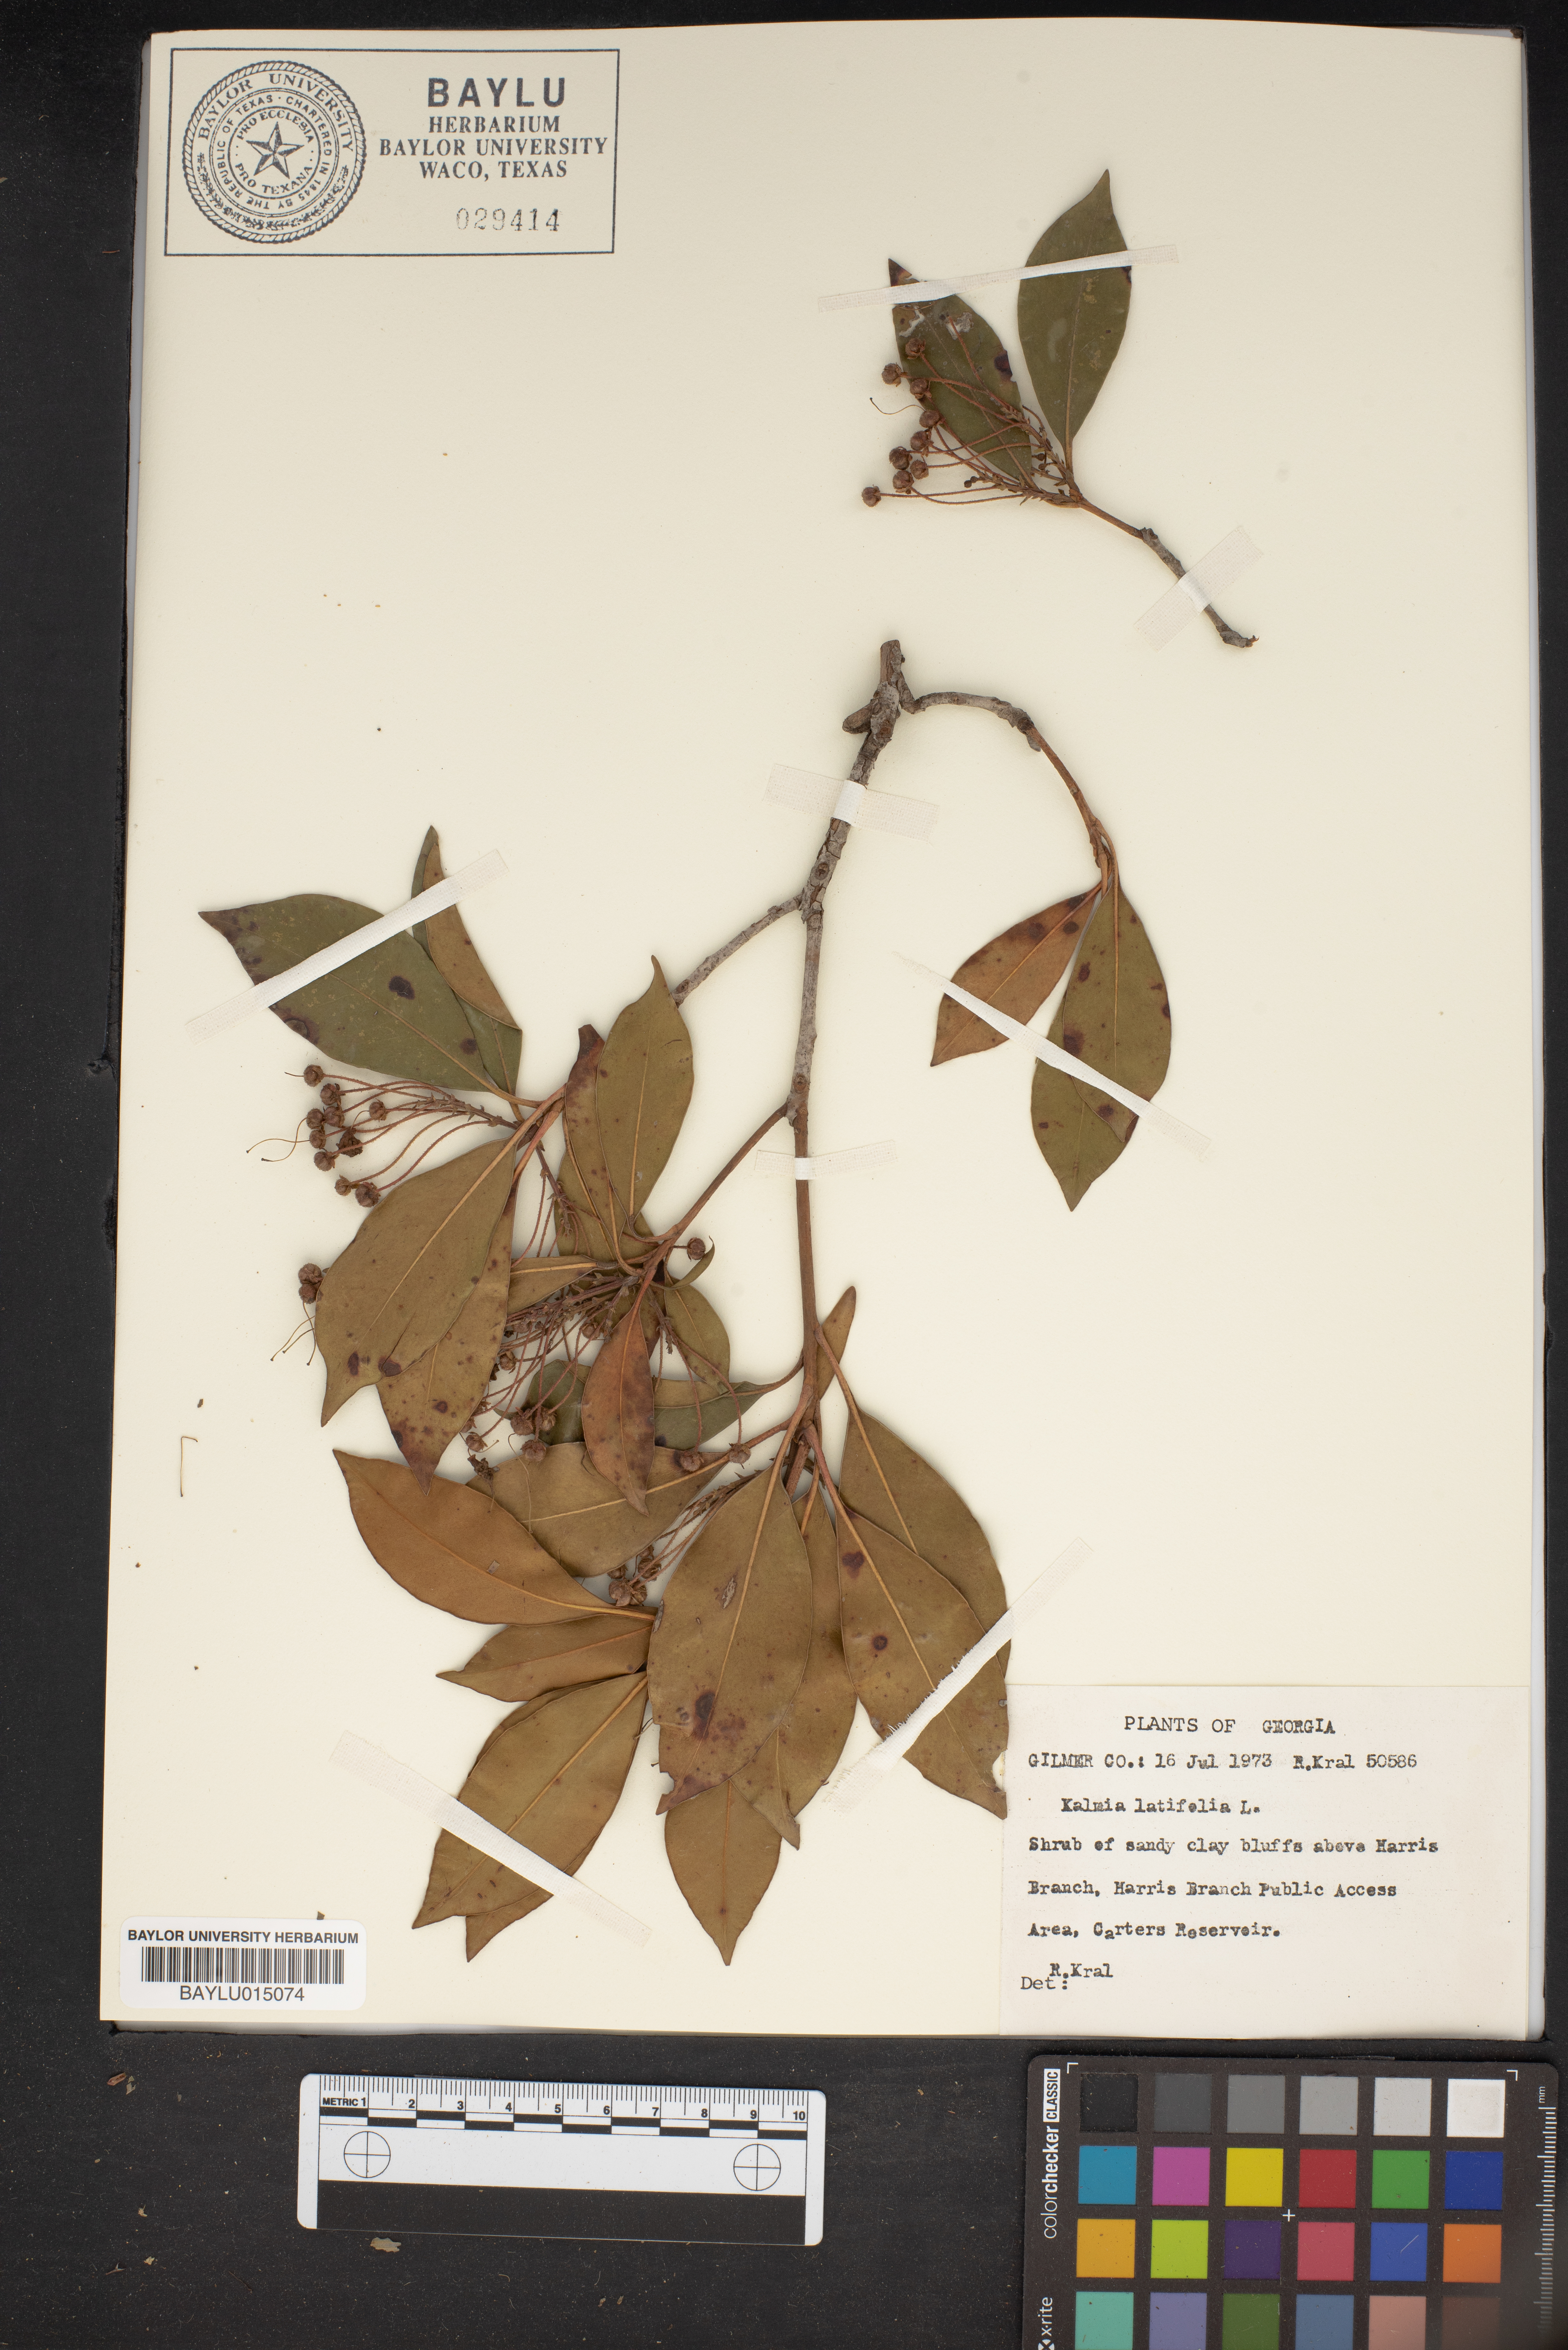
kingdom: Plantae
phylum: Tracheophyta
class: Magnoliopsida
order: Ericales
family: Ericaceae
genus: Kalmia
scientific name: Kalmia latifolia
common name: Mountain-laurel
